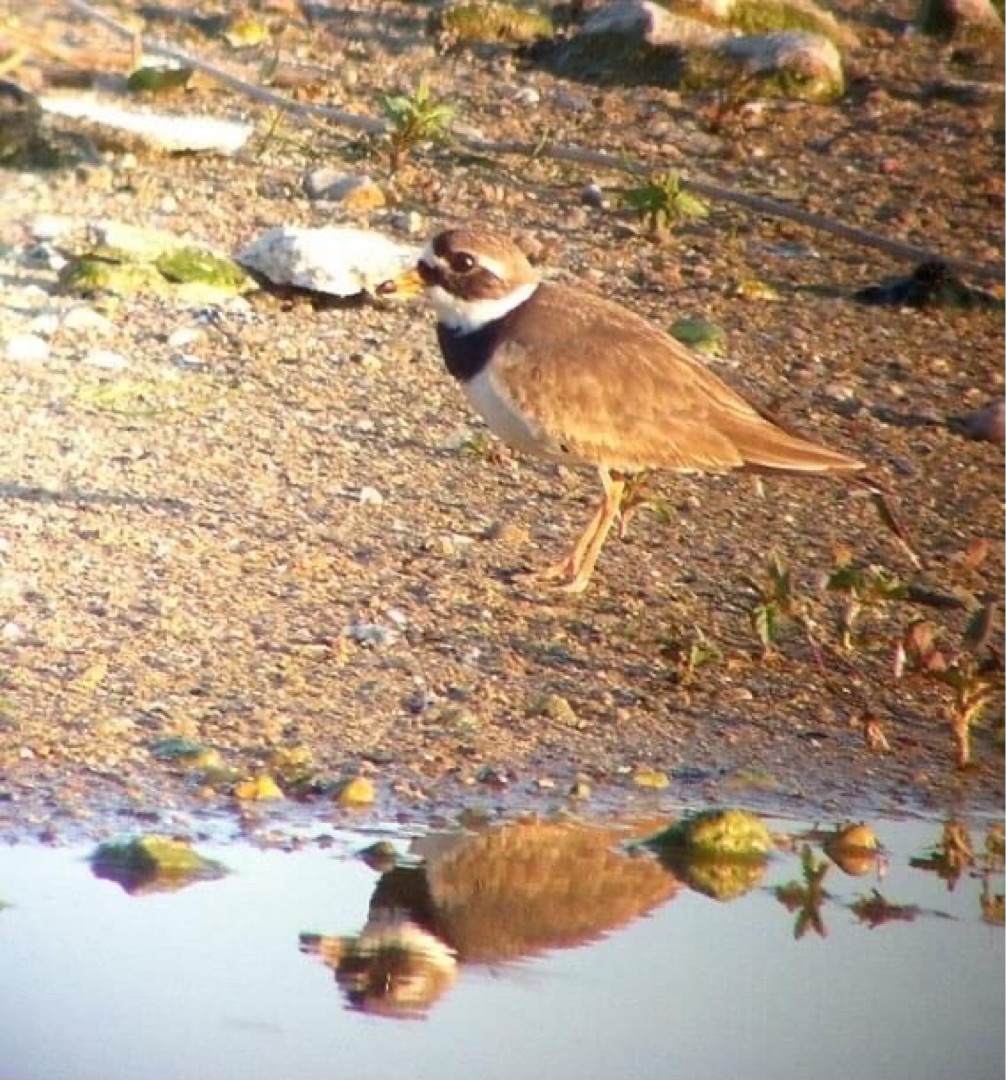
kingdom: Animalia
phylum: Chordata
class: Aves
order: Charadriiformes
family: Charadriidae
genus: Charadrius
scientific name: Charadrius hiaticula
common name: Stor præstekrave
